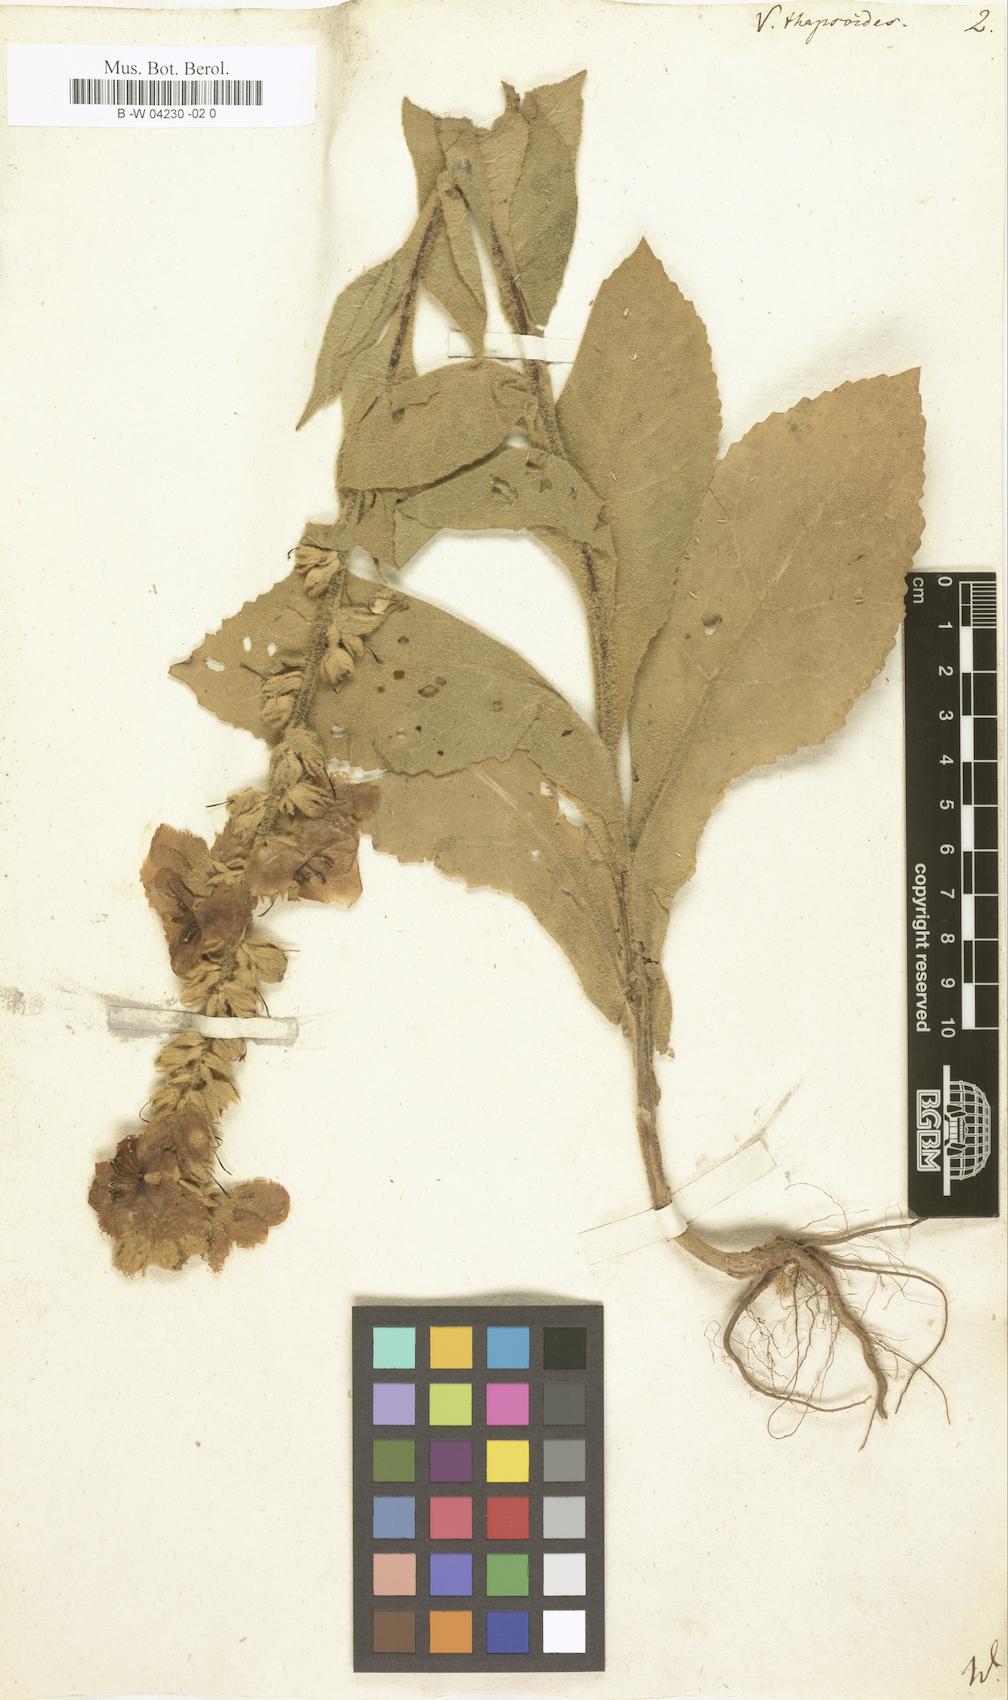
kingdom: Plantae
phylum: Tracheophyta
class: Magnoliopsida
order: Lamiales
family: Scrophulariaceae
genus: Verbascum
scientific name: Verbascum thapsus
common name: Common mullein
